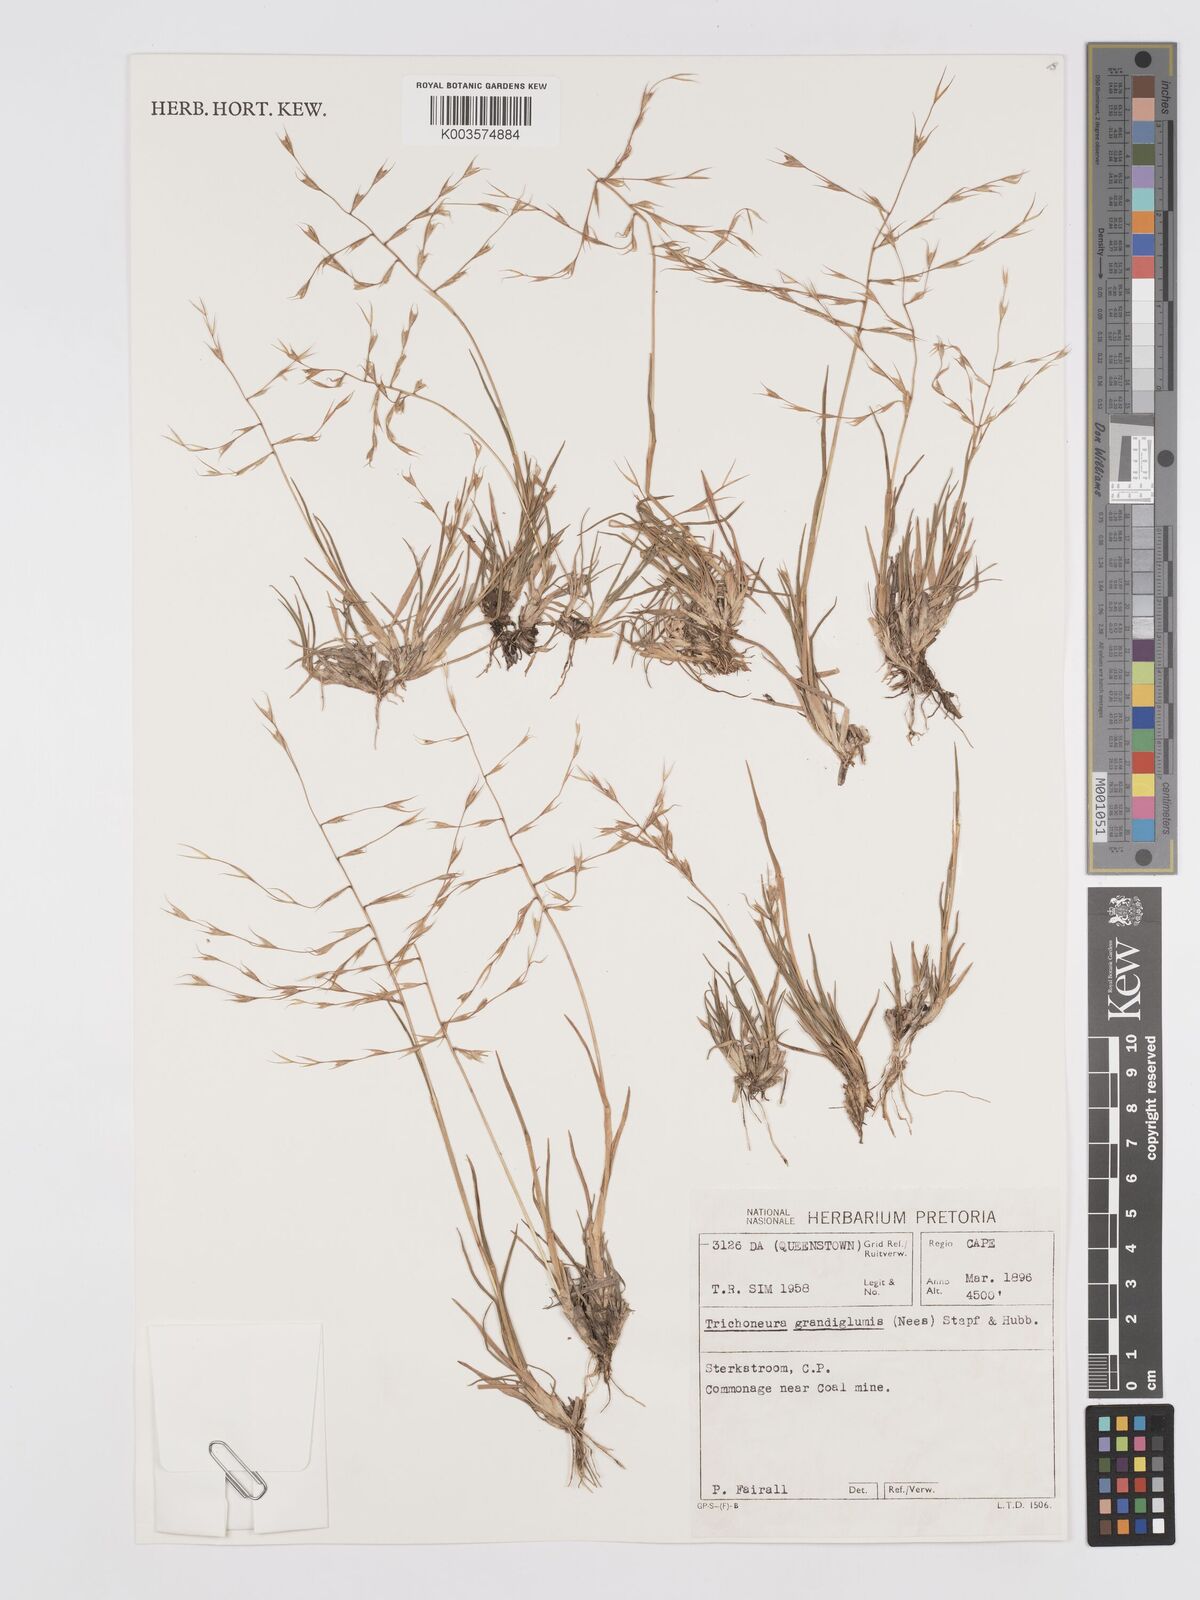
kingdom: Plantae
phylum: Tracheophyta
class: Liliopsida
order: Poales
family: Poaceae
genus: Trichoneura
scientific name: Trichoneura grandiglumis
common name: Rolling grass
